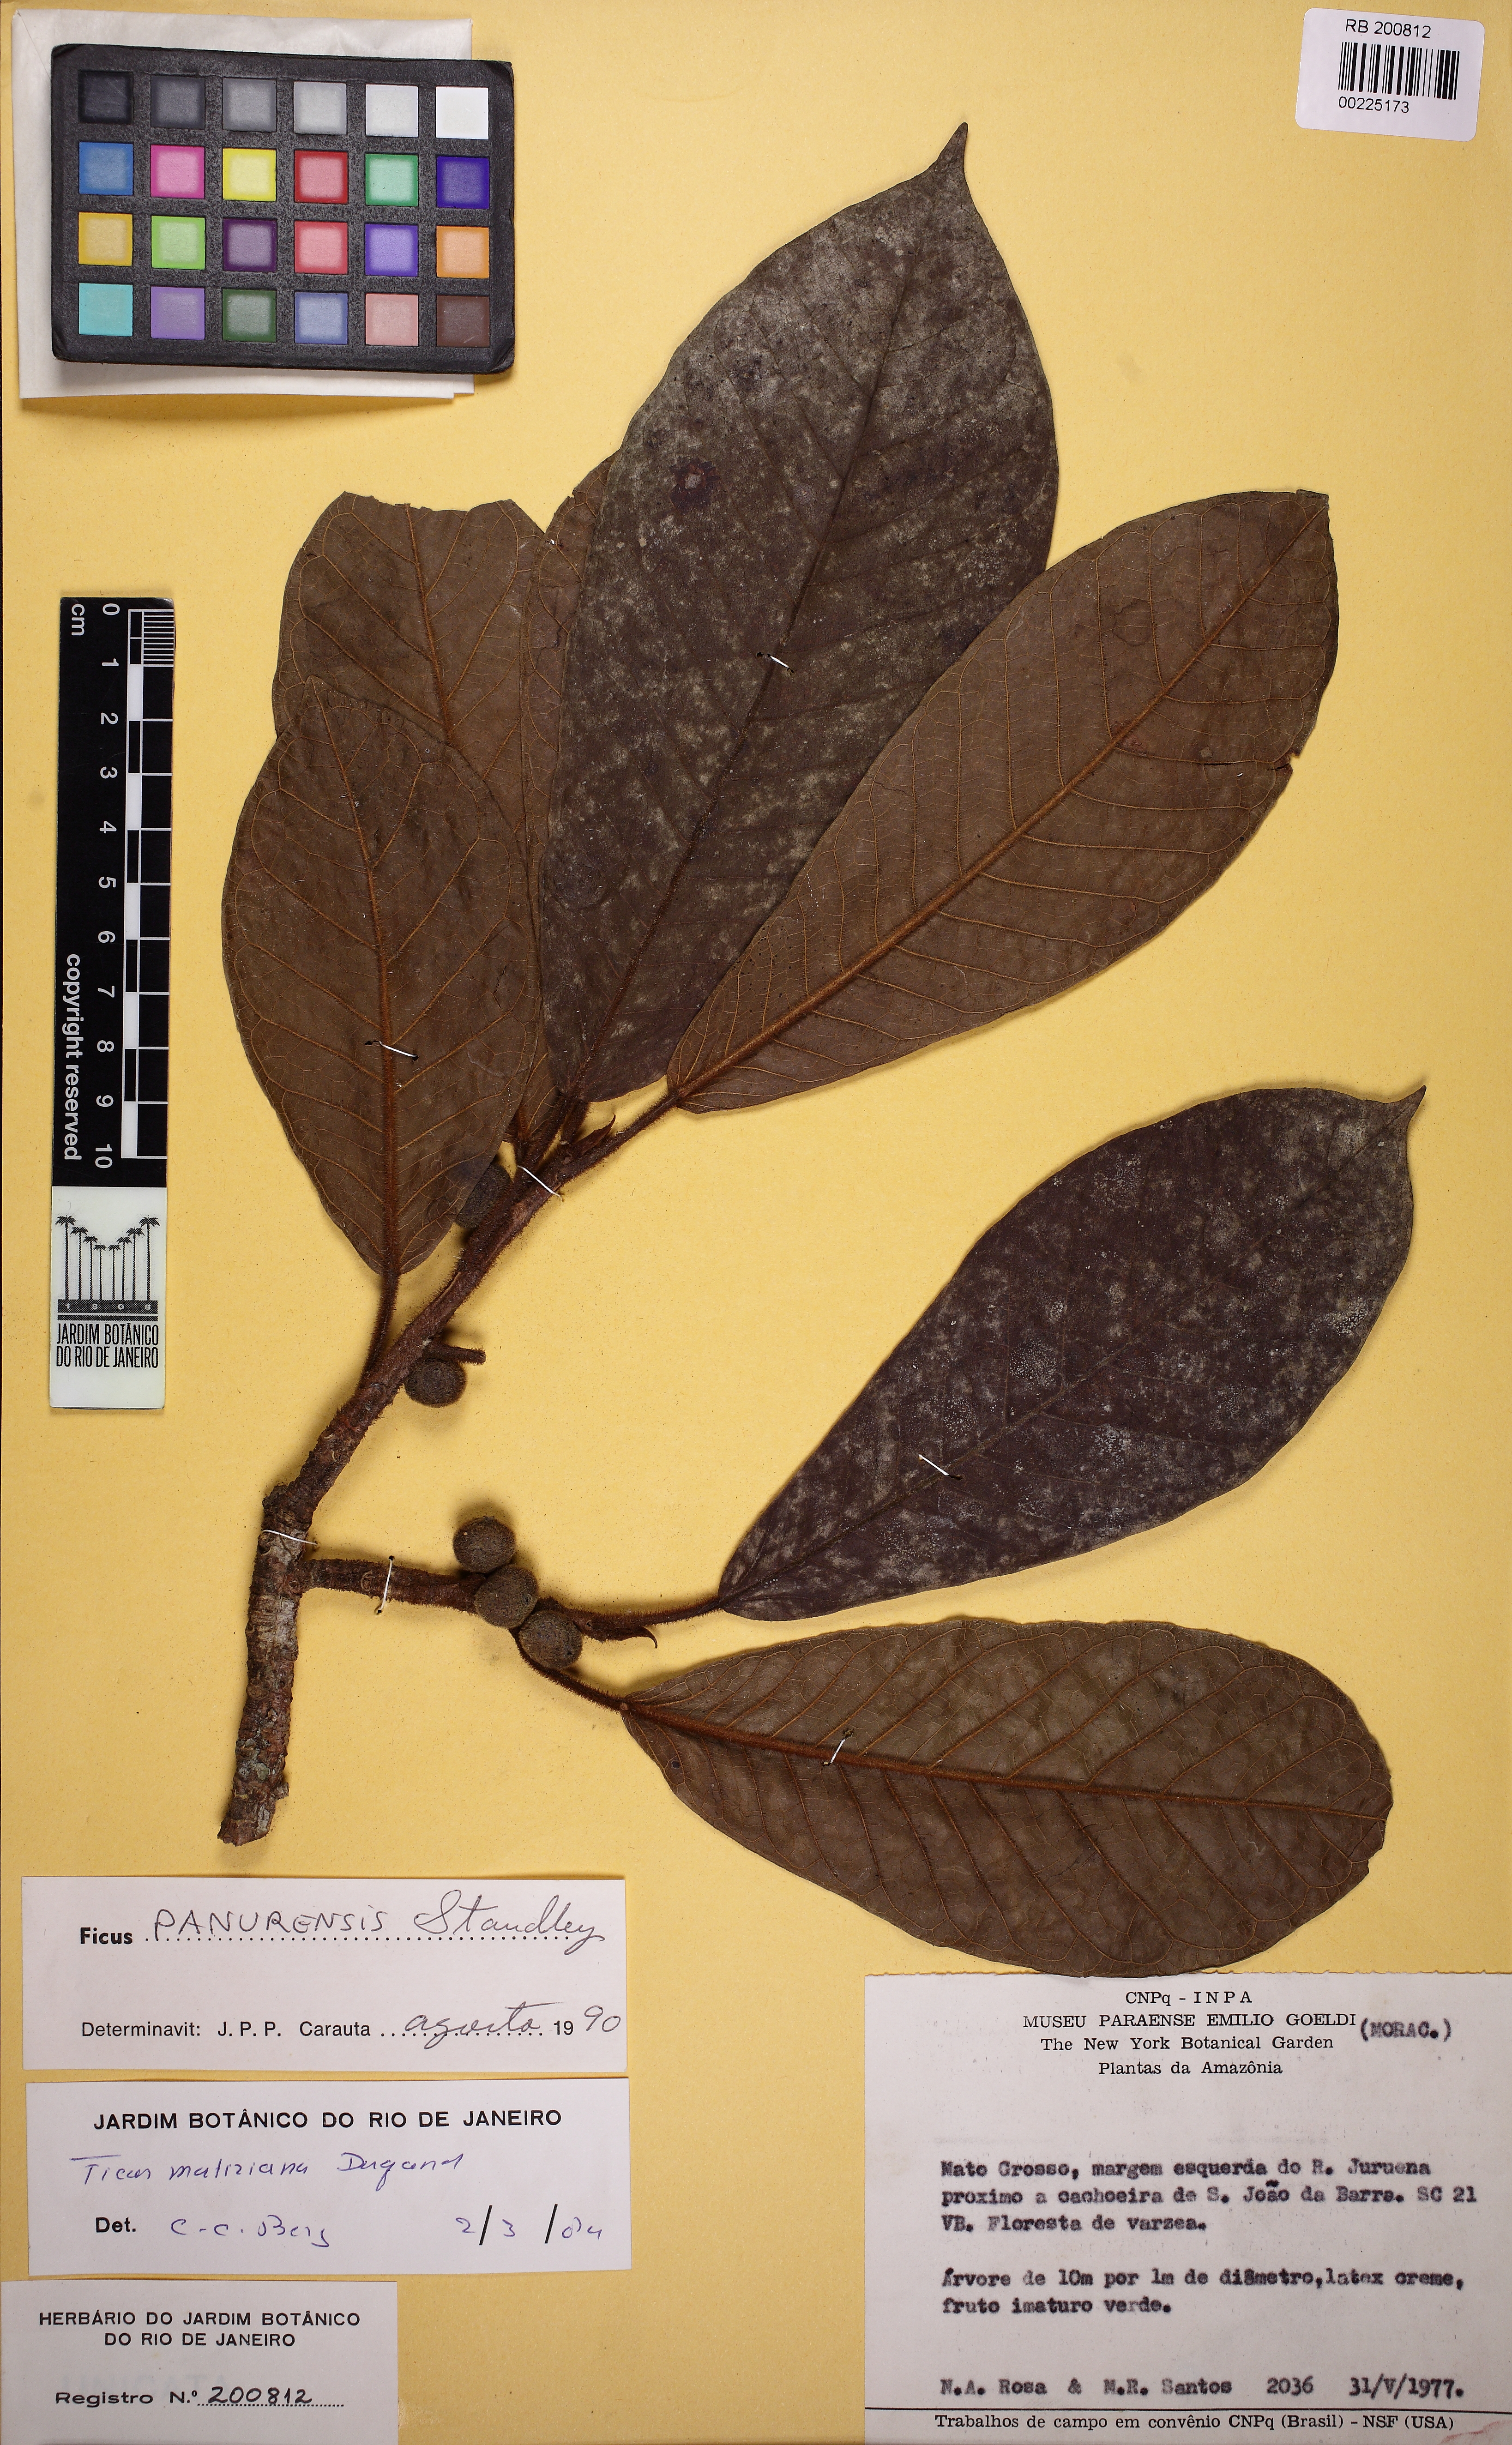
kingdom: Plantae
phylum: Tracheophyta
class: Magnoliopsida
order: Rosales
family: Moraceae
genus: Ficus
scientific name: Ficus matiziana
